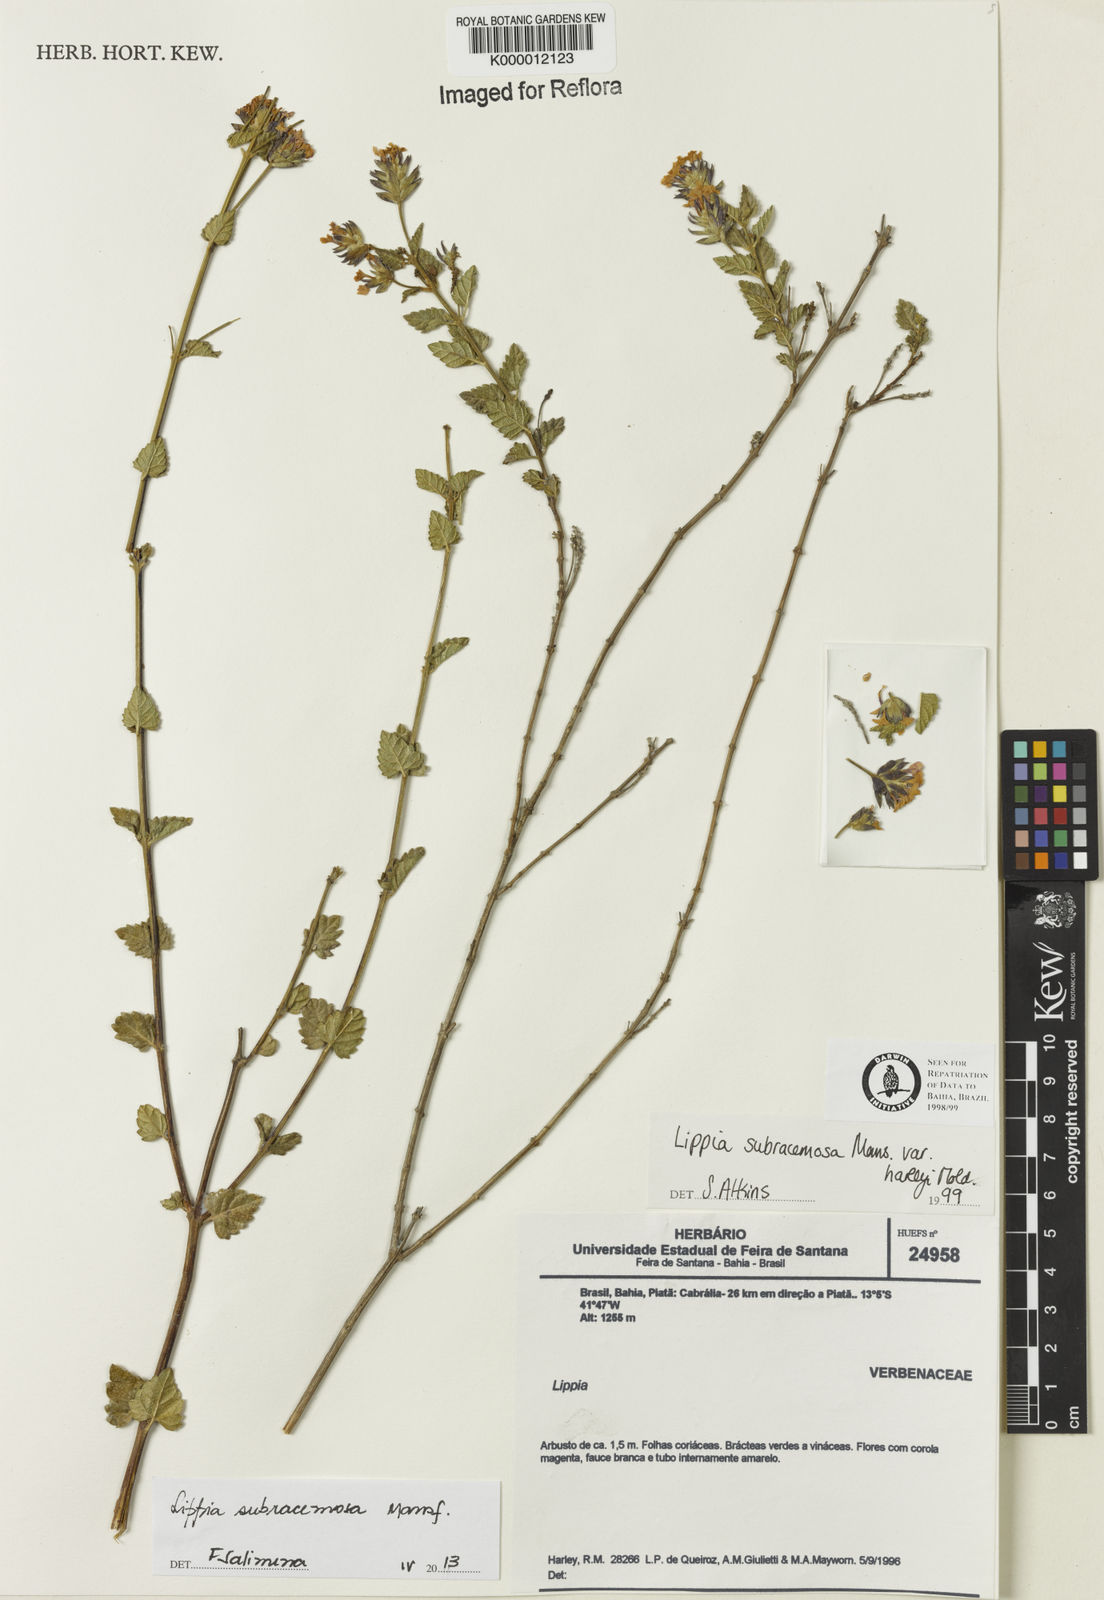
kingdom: Plantae
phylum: Tracheophyta
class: Magnoliopsida
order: Lamiales
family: Verbenaceae
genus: Lippia
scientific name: Lippia deltata
